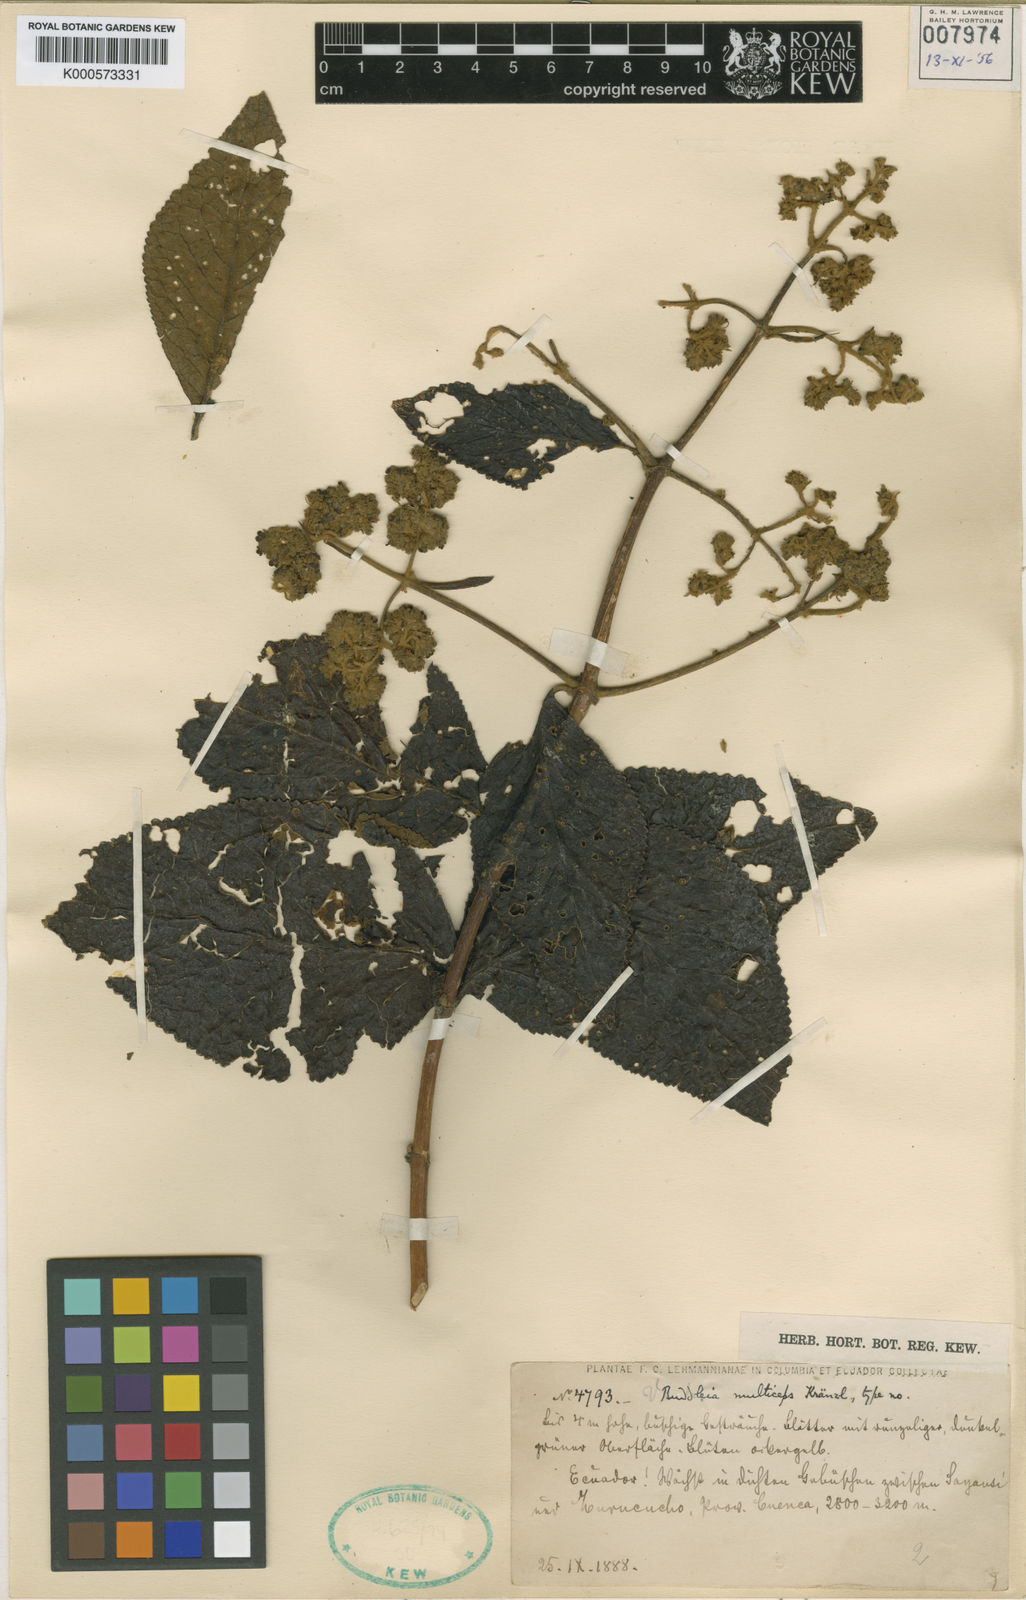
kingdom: Plantae
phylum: Tracheophyta
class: Magnoliopsida
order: Lamiales
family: Scrophulariaceae
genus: Buddleja
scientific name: Buddleja multiceps
